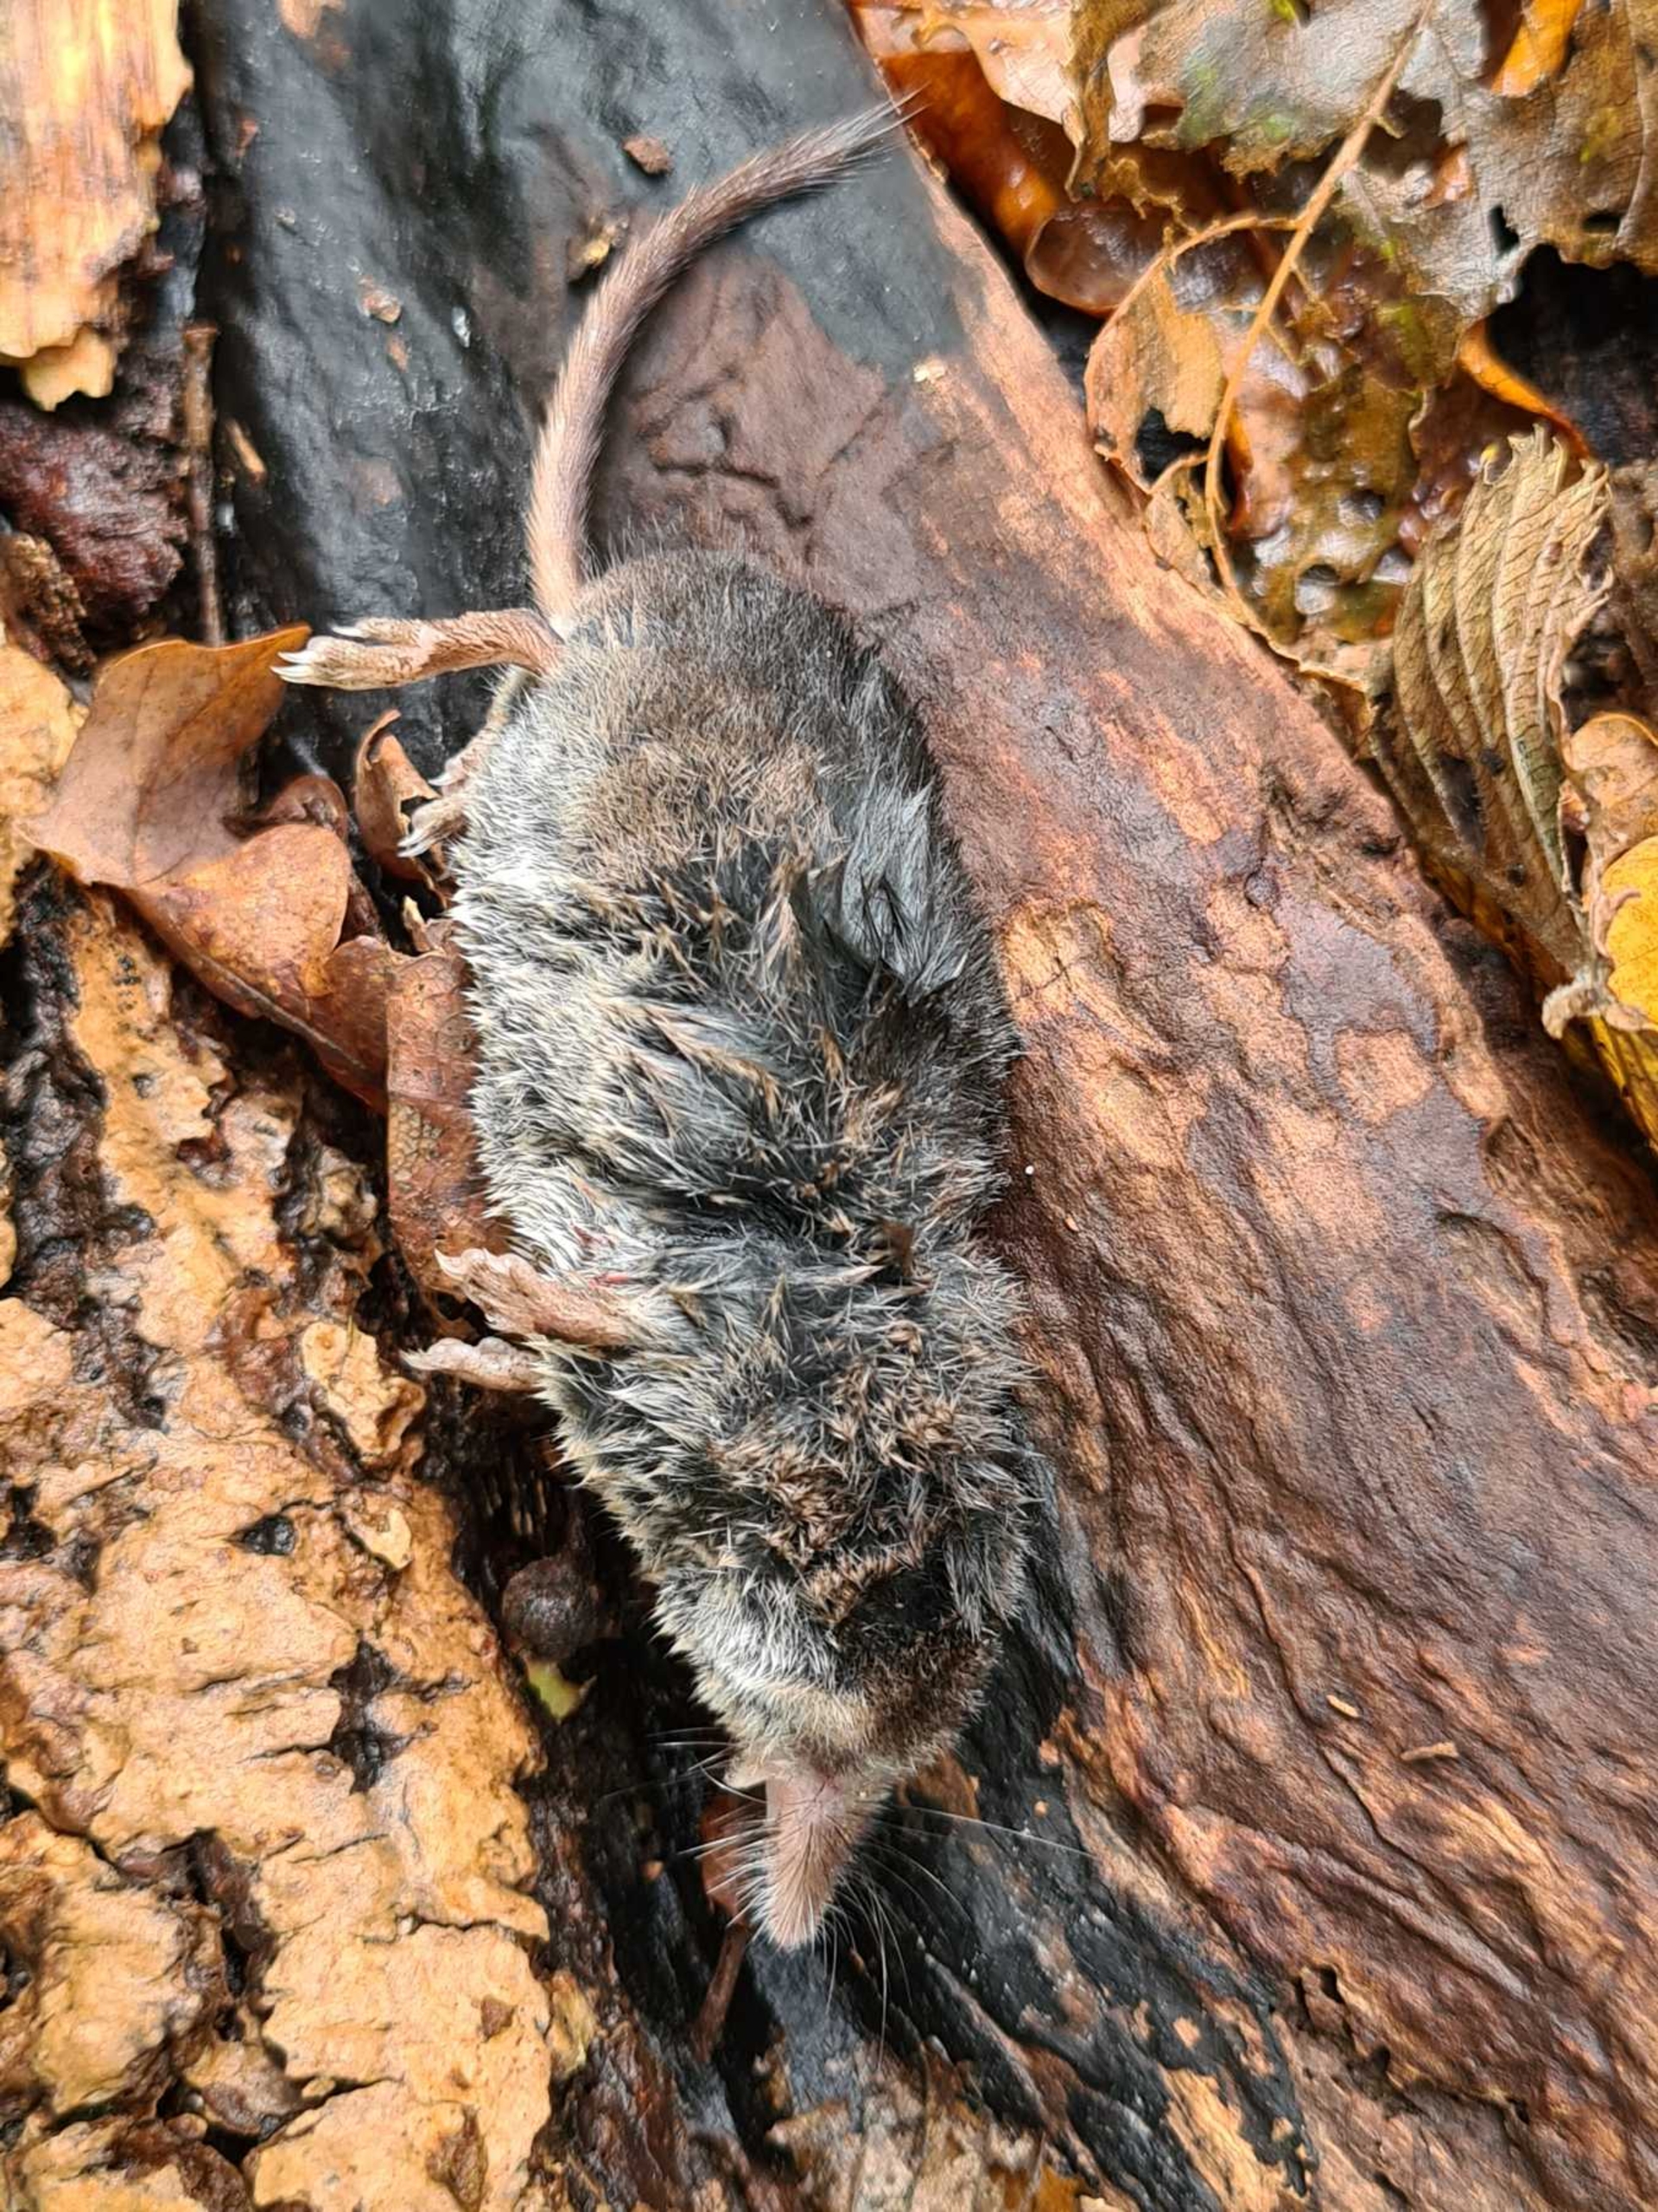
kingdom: Animalia
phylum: Chordata
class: Mammalia
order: Soricomorpha
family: Soricidae
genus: Sorex
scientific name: Sorex araneus
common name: Almindelig spidsmus
